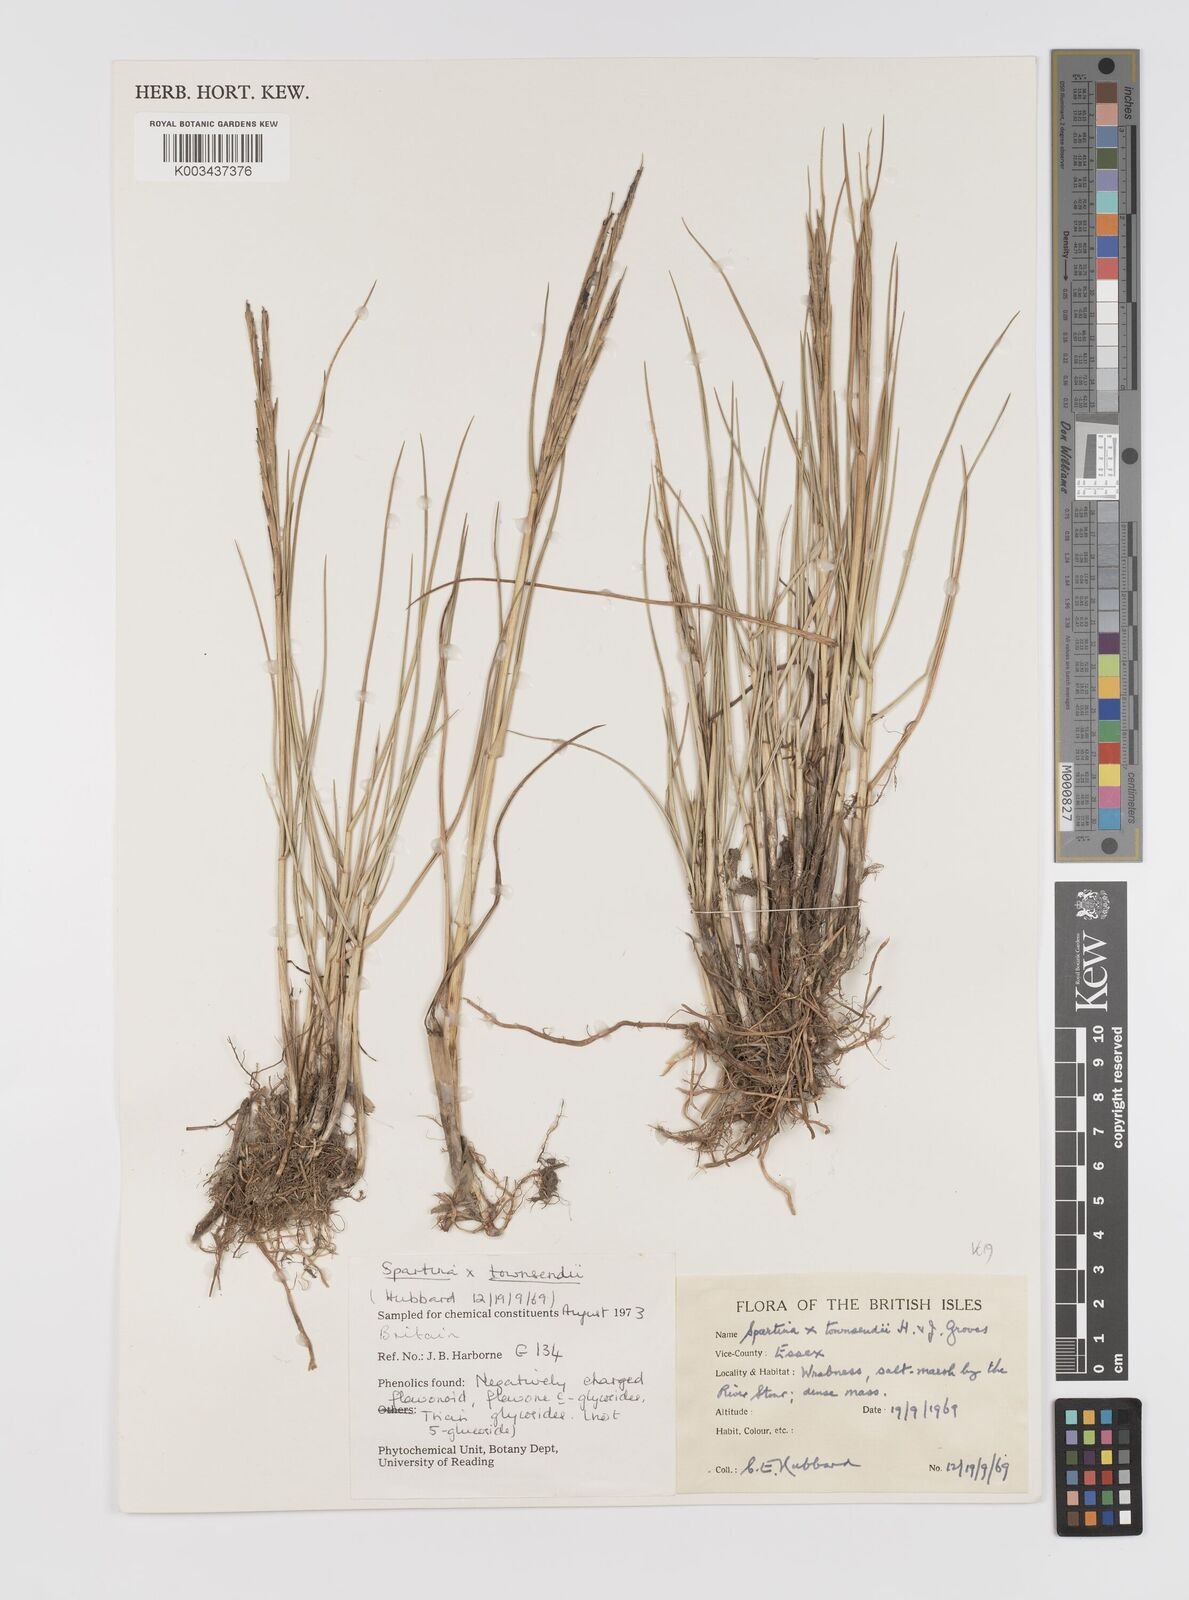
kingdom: Plantae
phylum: Tracheophyta
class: Liliopsida
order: Poales
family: Poaceae
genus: Sporobolus
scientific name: Sporobolus townsendii
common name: Townsend's cordgrass
